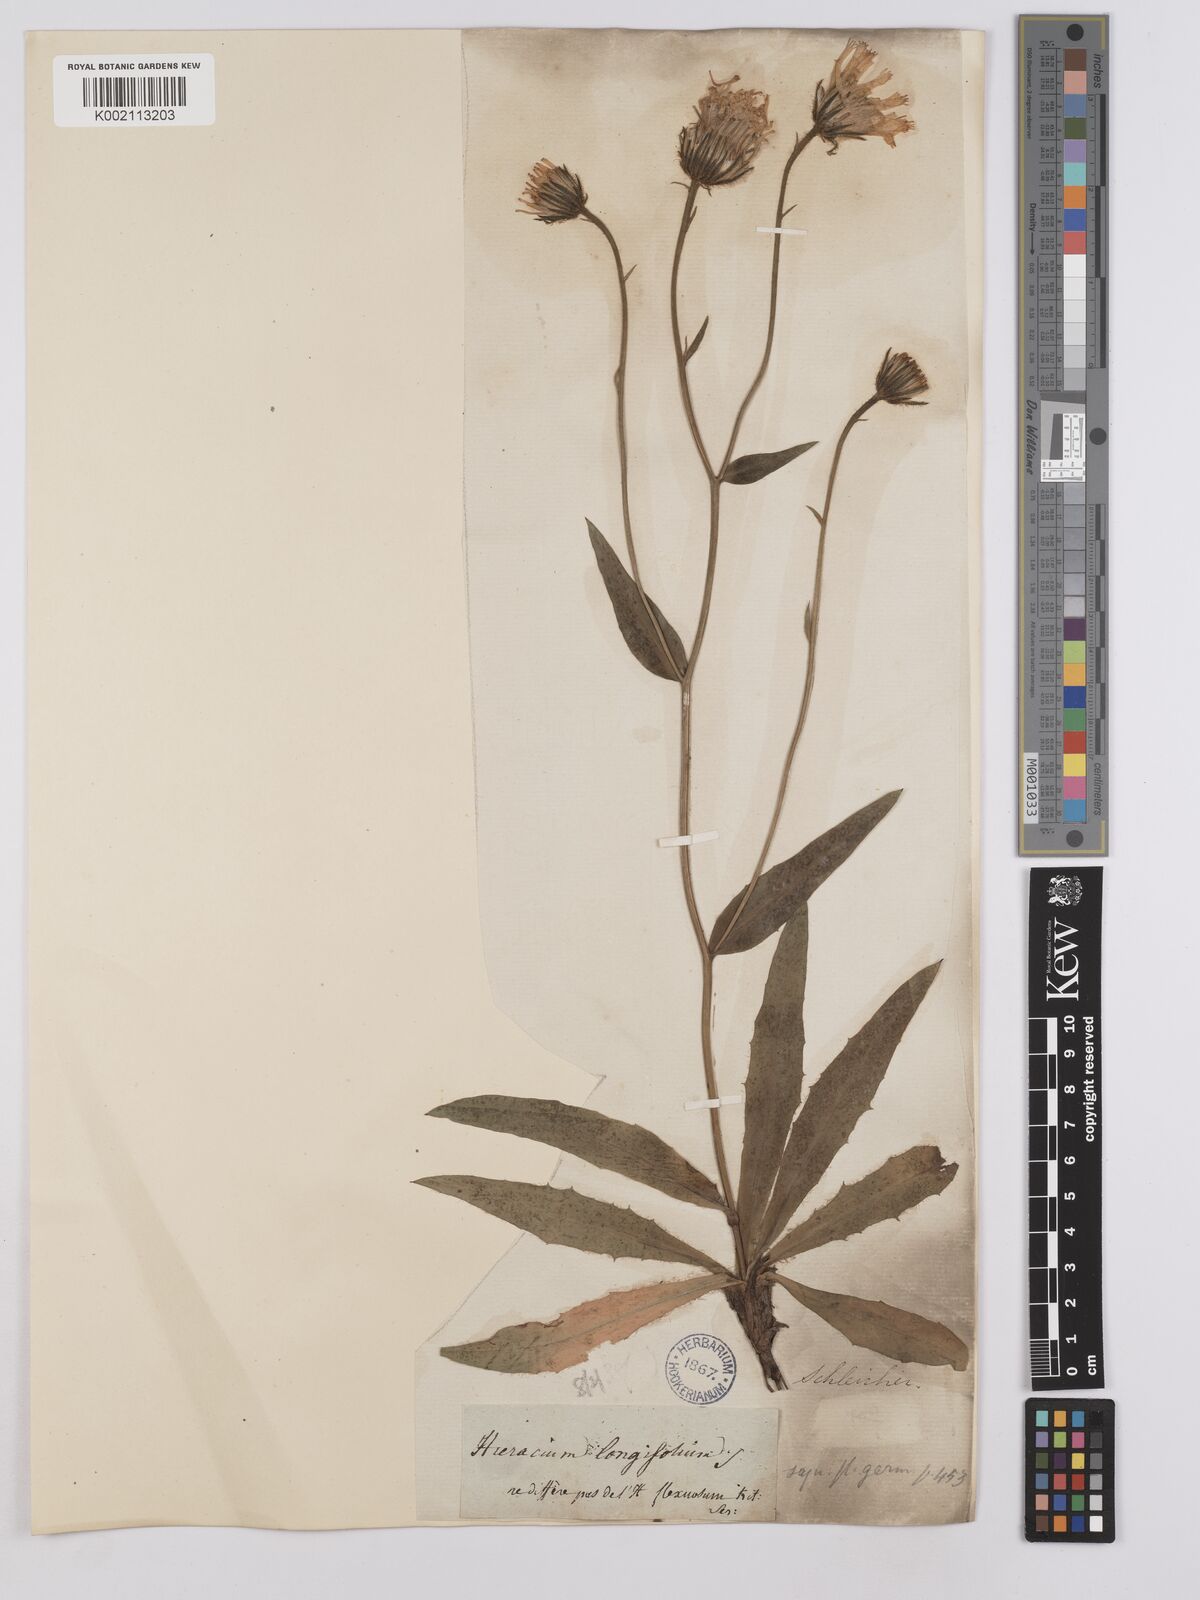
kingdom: Plantae
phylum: Tracheophyta
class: Magnoliopsida
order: Asterales
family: Asteraceae
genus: Crepis
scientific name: Crepis blattarioides
